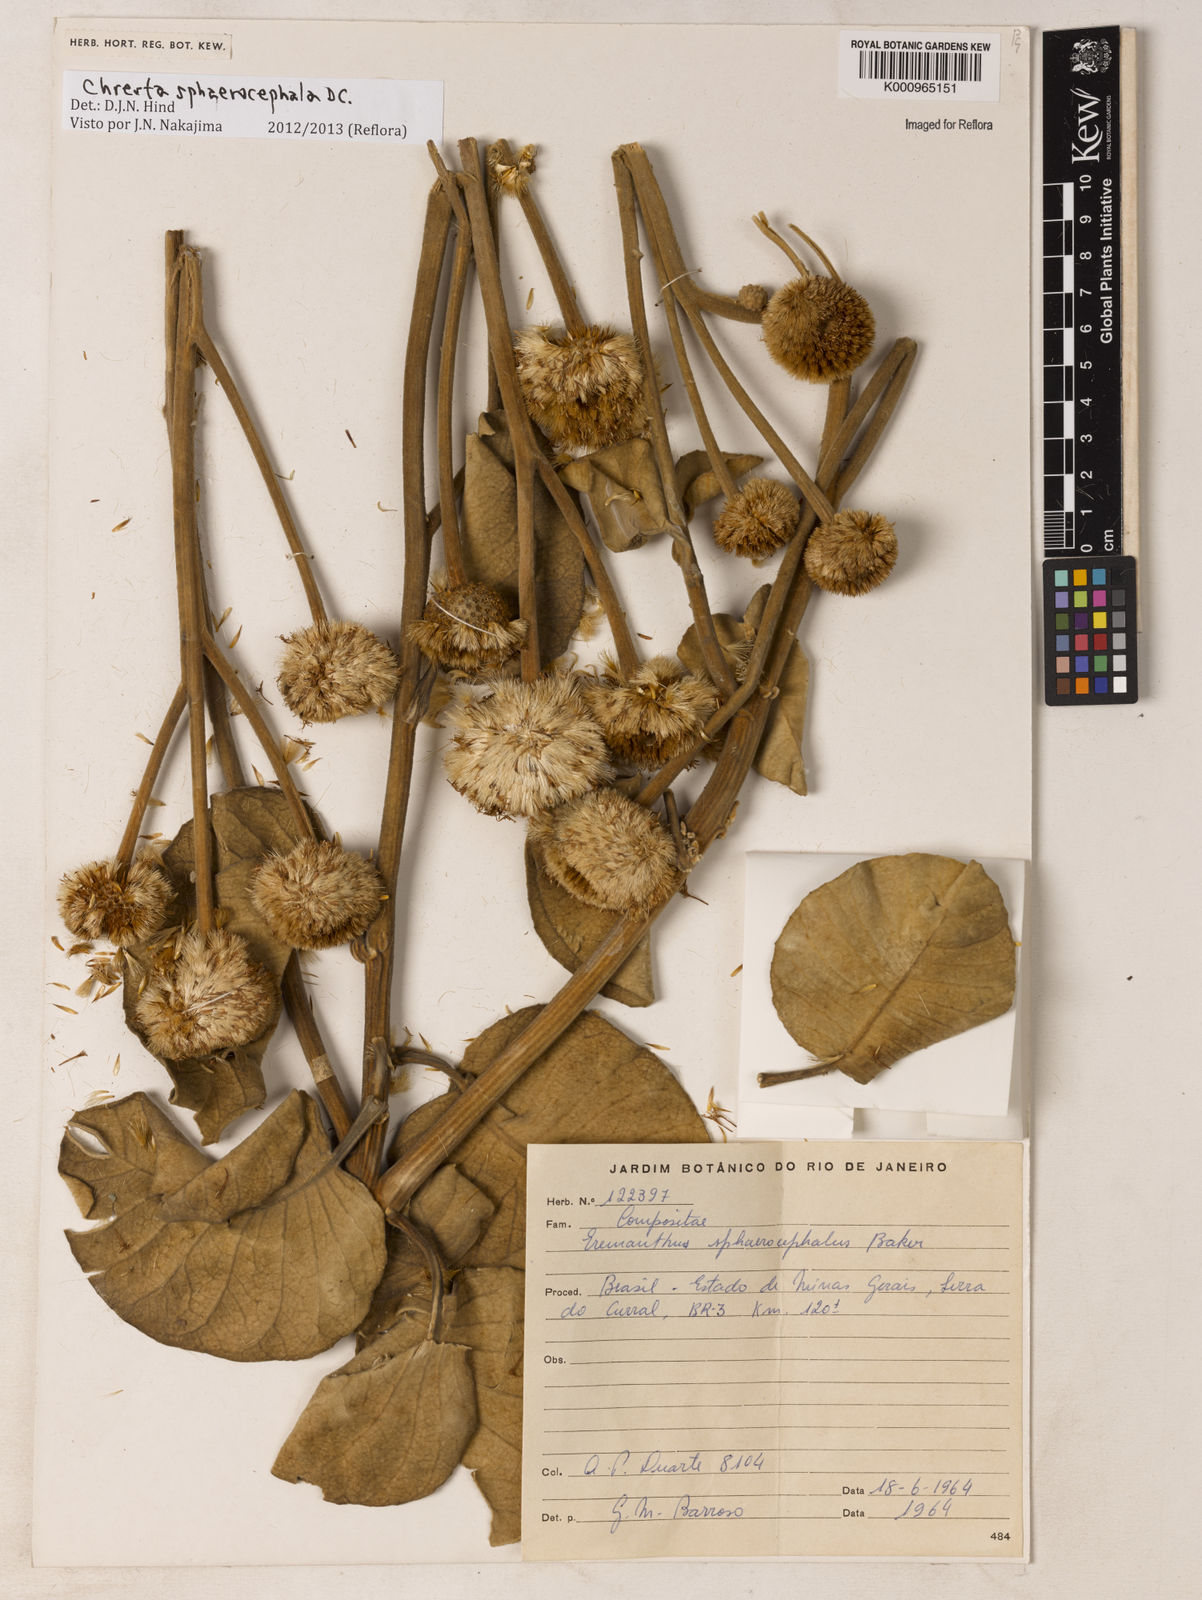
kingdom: Plantae
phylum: Tracheophyta
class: Magnoliopsida
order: Asterales
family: Asteraceae
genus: Chresta
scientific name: Chresta sphaerocephala
